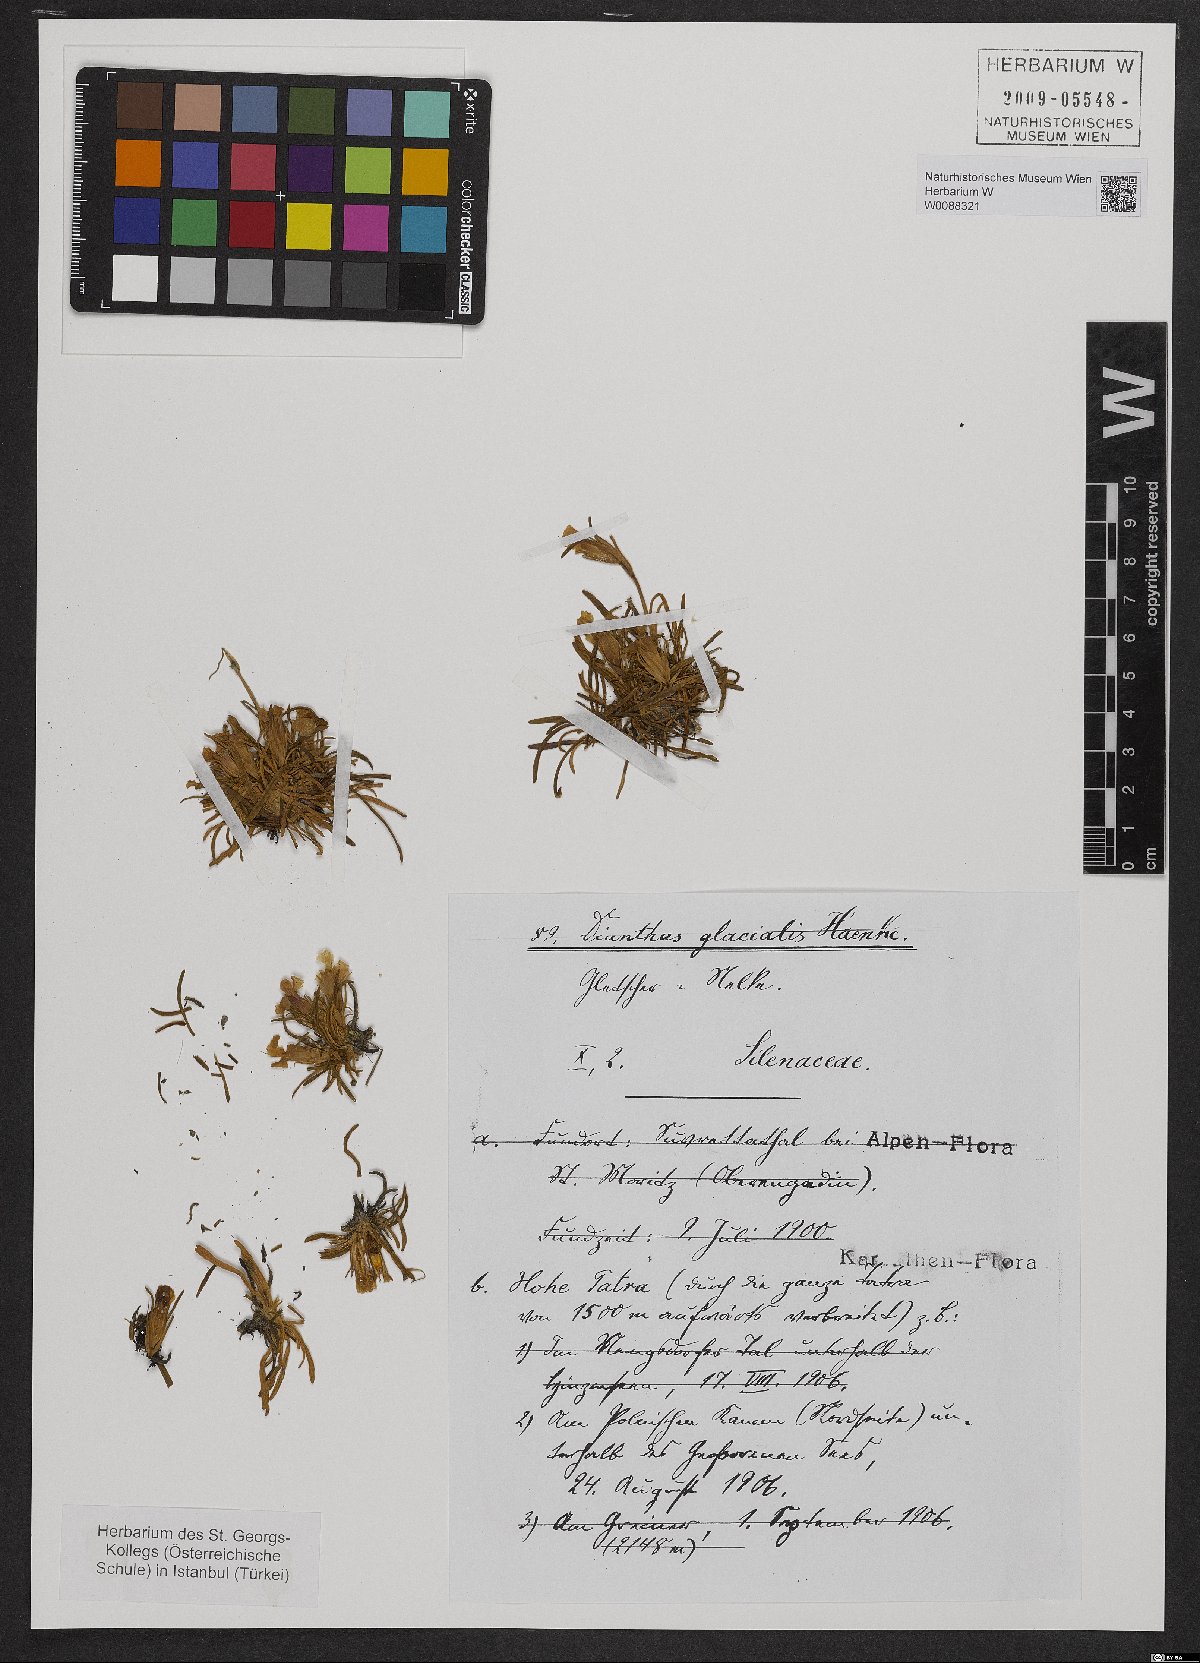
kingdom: Plantae
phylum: Tracheophyta
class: Magnoliopsida
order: Caryophyllales
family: Caryophyllaceae
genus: Dianthus
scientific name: Dianthus glacialis
